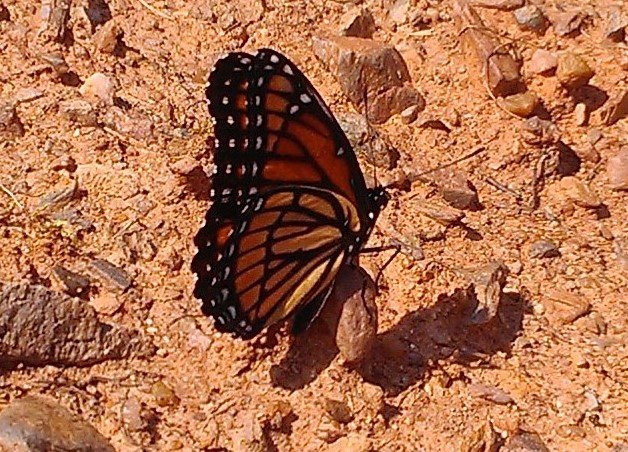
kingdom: Animalia
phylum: Arthropoda
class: Insecta
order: Lepidoptera
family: Nymphalidae
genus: Limenitis
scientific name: Limenitis archippus
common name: Viceroy
